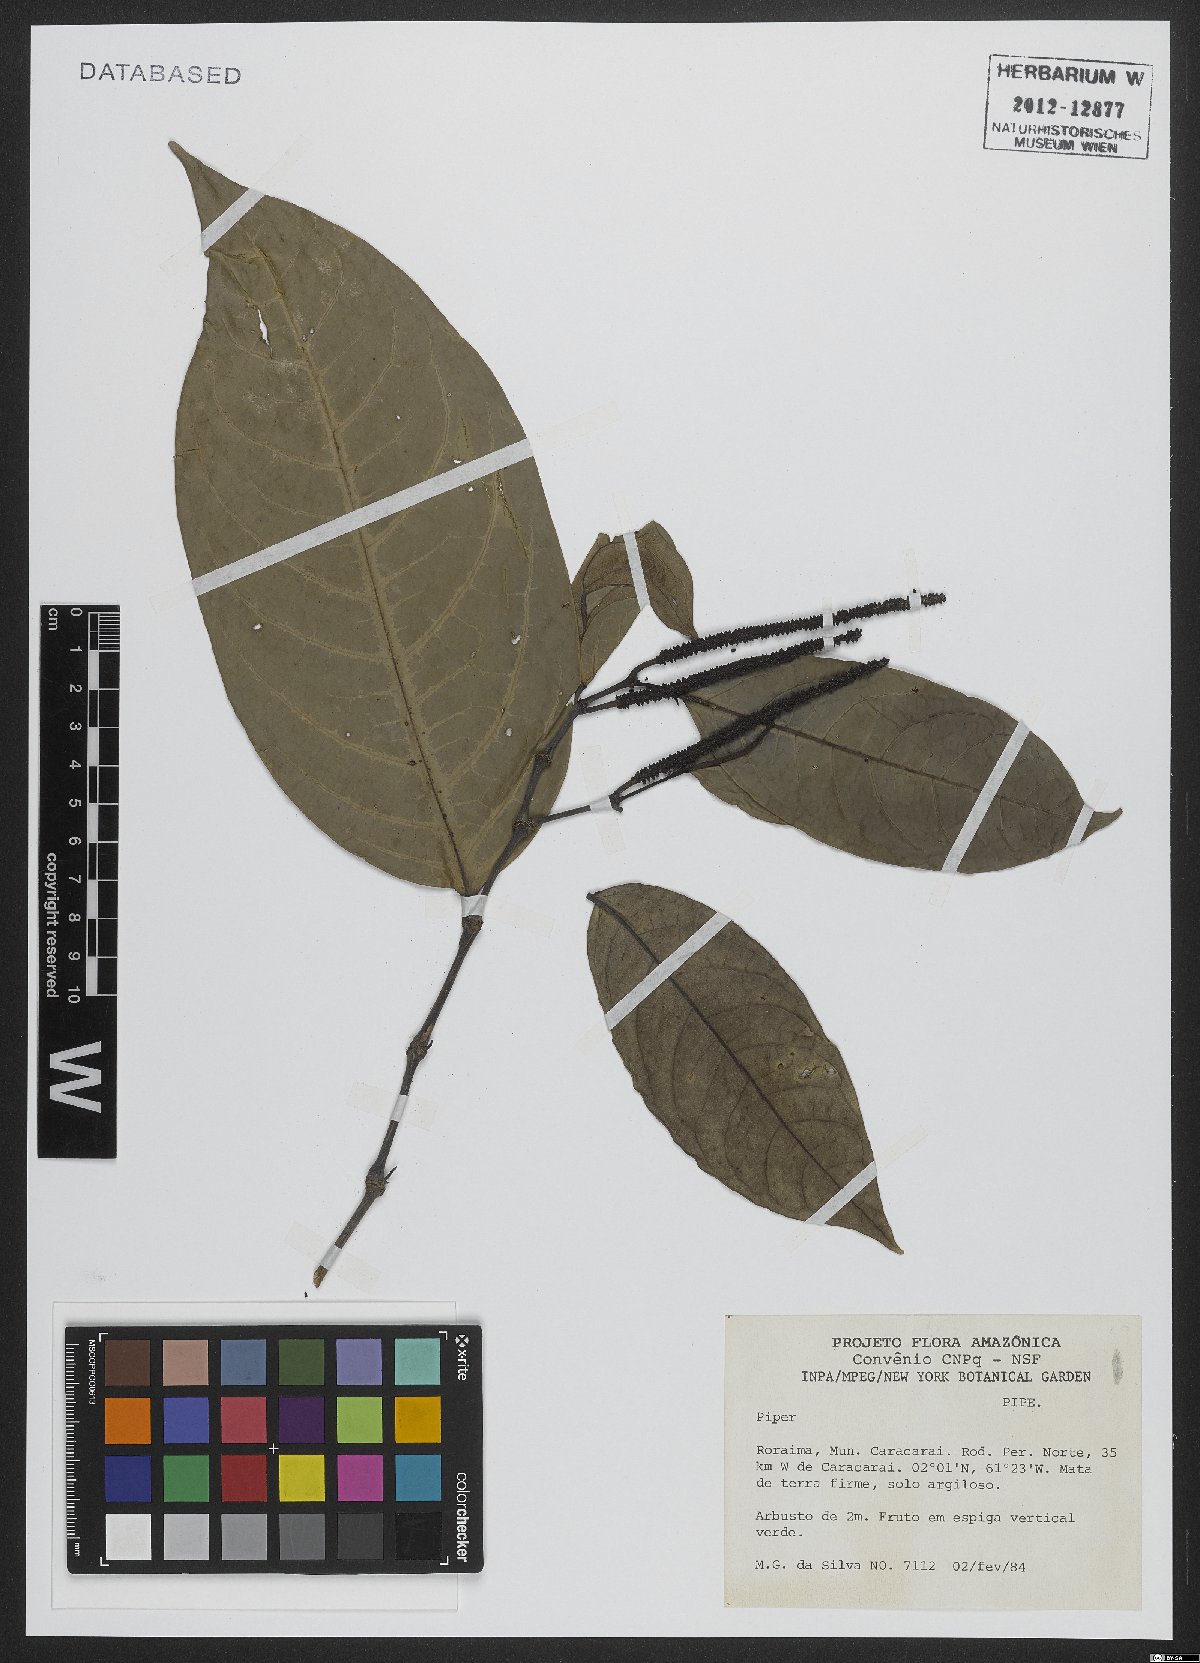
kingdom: Plantae
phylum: Tracheophyta
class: Magnoliopsida
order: Piperales
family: Piperaceae
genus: Piper
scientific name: Piper
